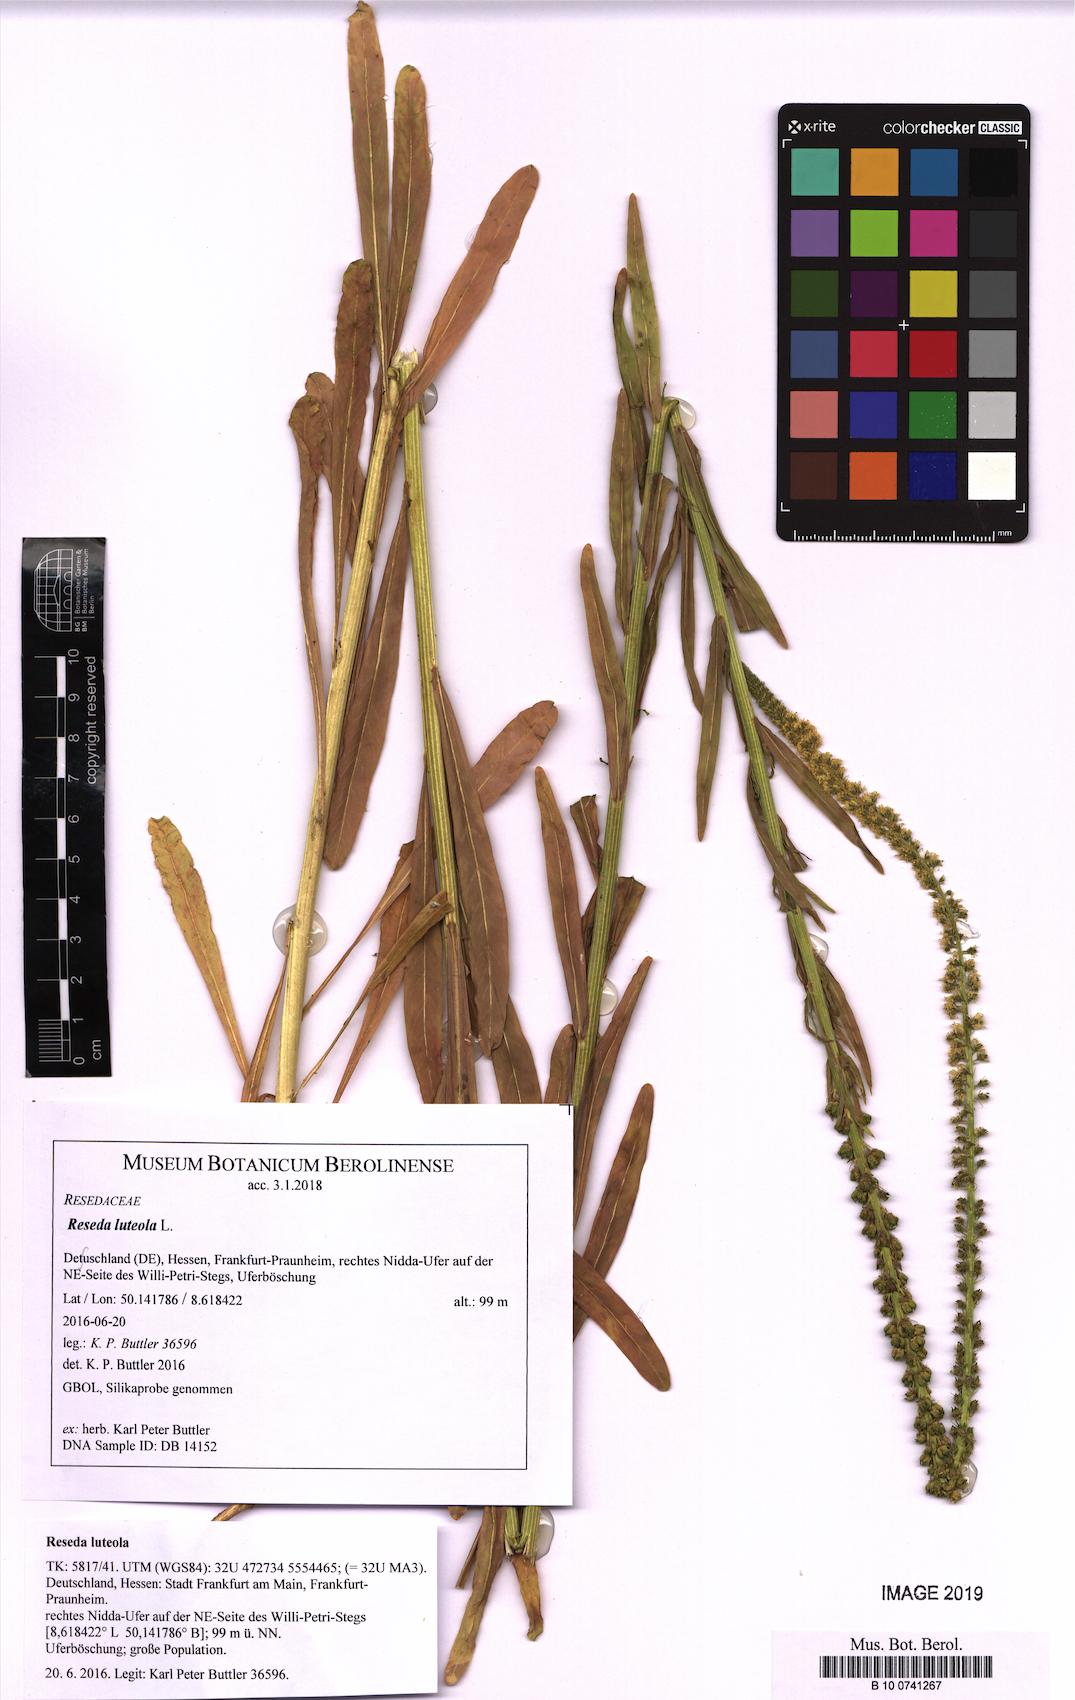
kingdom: Plantae
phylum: Tracheophyta
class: Magnoliopsida
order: Brassicales
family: Resedaceae
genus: Reseda
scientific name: Reseda luteola
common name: Weld
